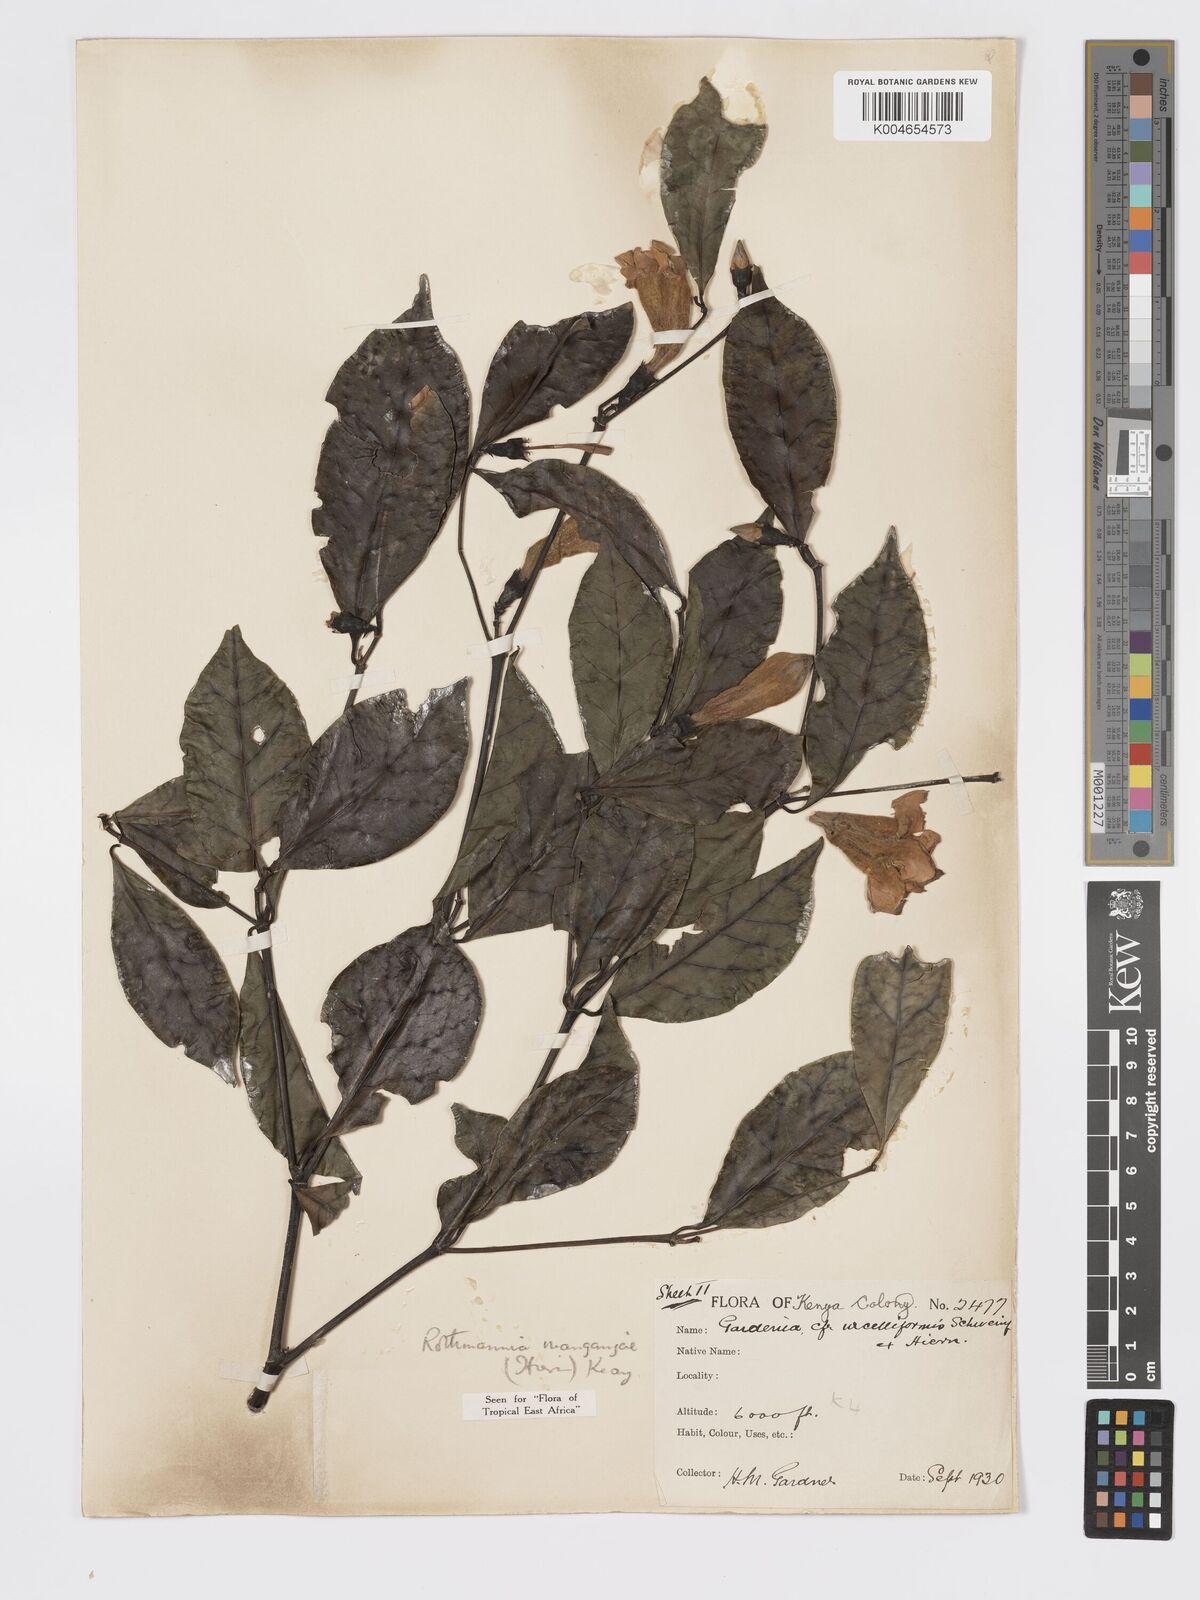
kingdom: Plantae
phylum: Tracheophyta
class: Magnoliopsida
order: Gentianales
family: Rubiaceae
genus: Rothmannia
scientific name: Rothmannia manganjae
